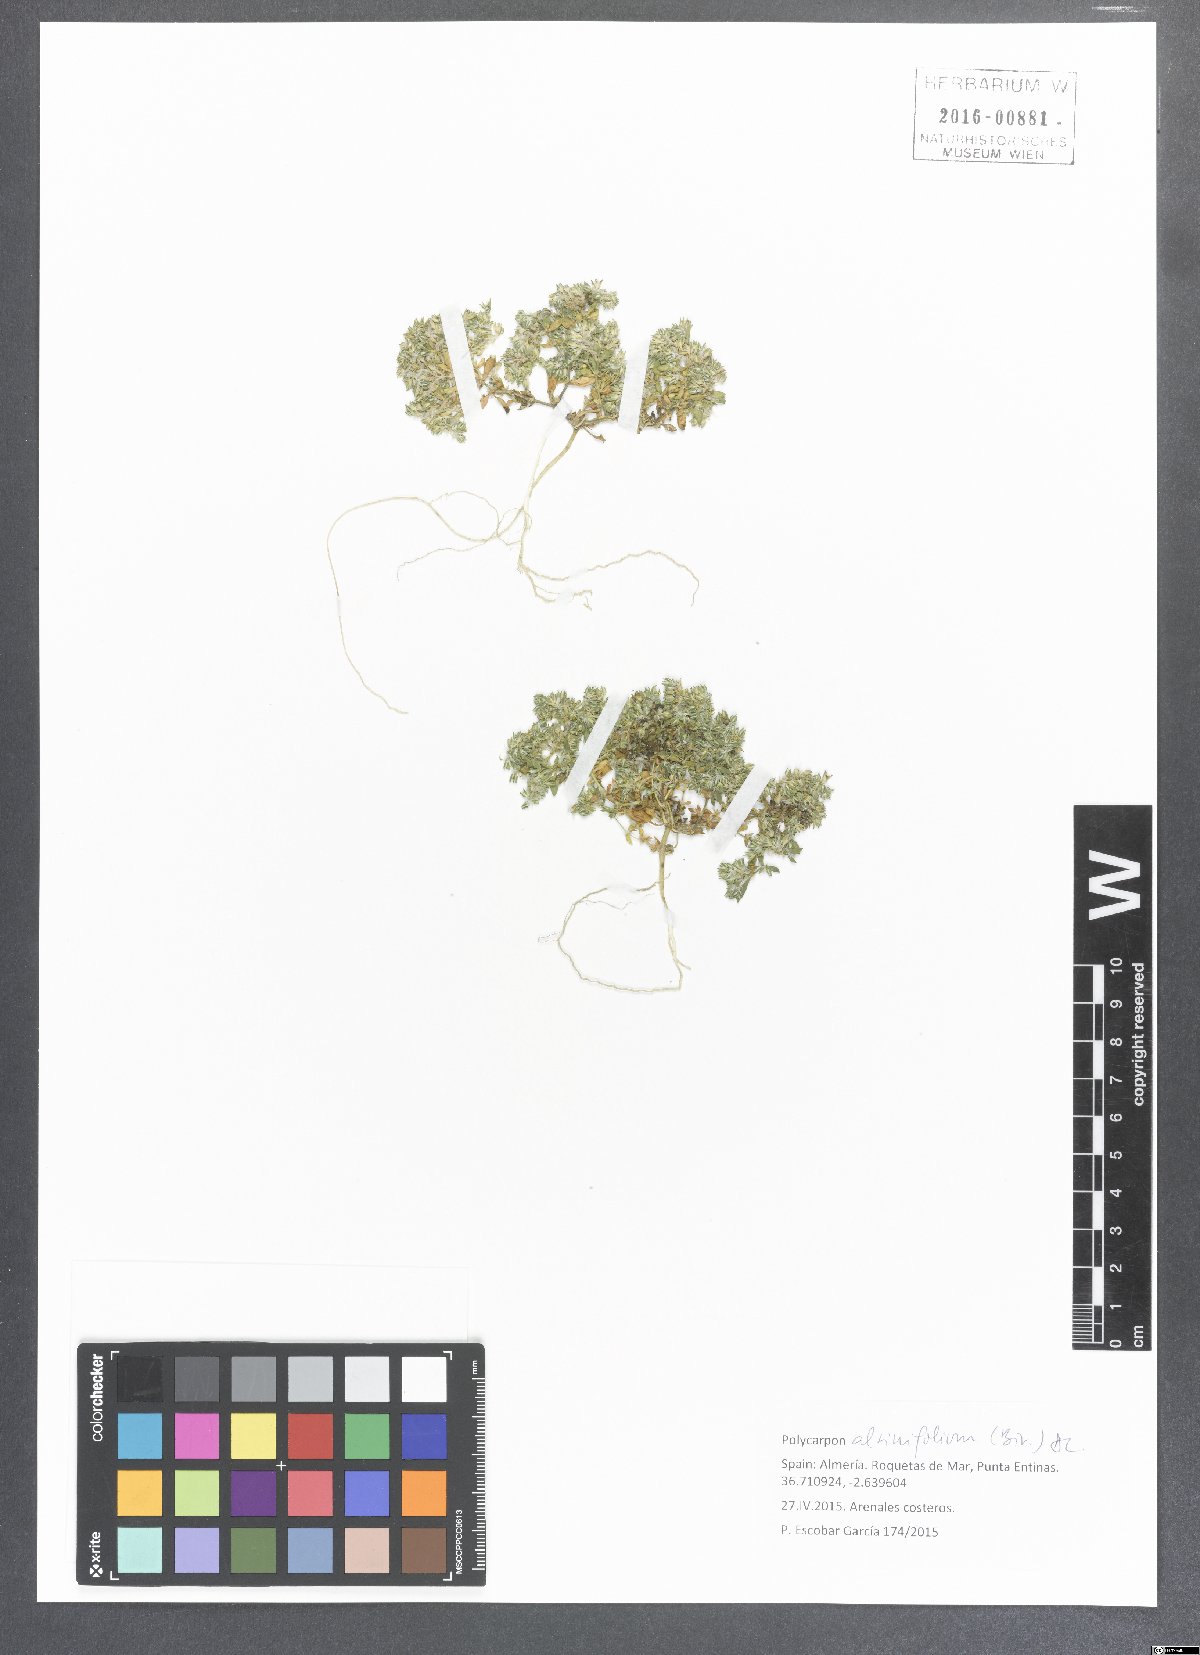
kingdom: Plantae
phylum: Tracheophyta
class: Magnoliopsida
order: Caryophyllales
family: Caryophyllaceae
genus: Polycarpon
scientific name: Polycarpon alsinifolium
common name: Fourleaf manyseed
